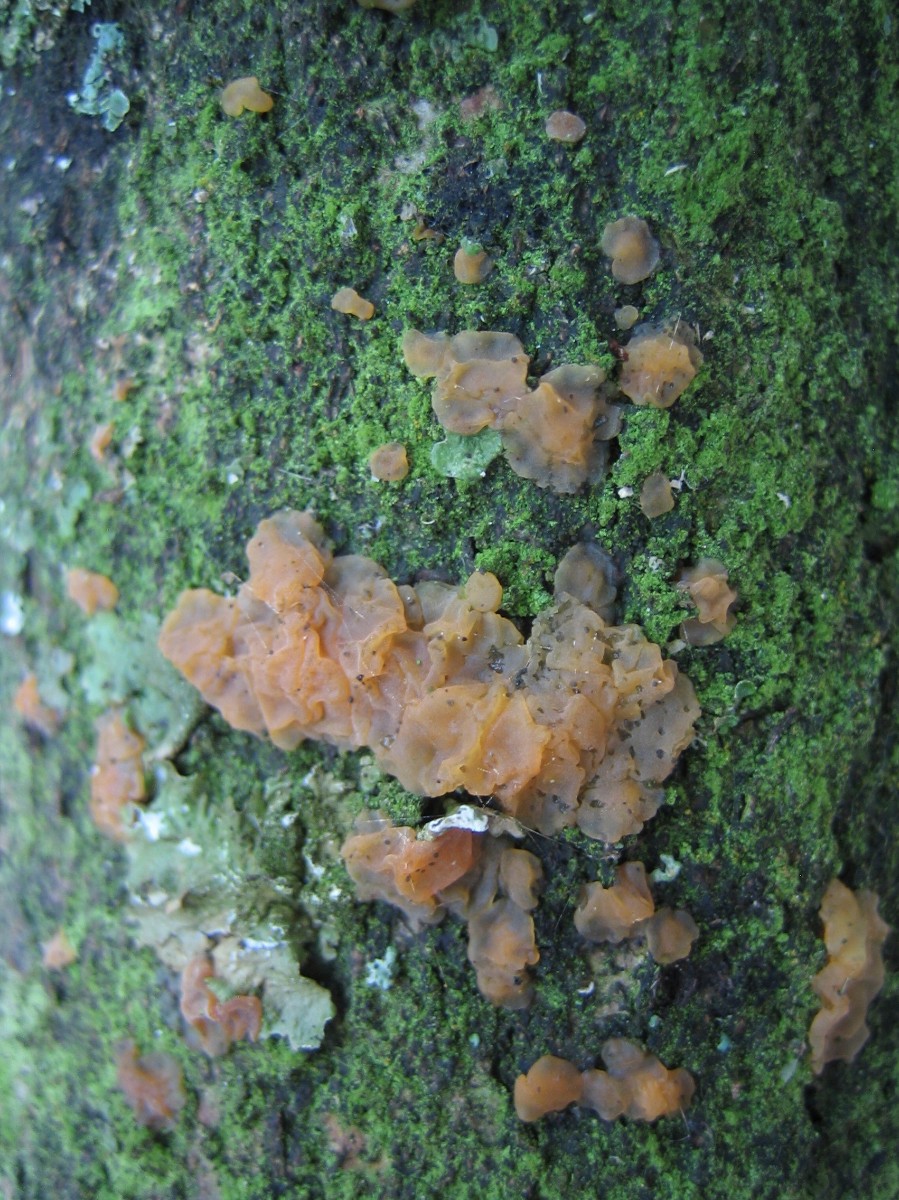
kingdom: Fungi
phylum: Basidiomycota
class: Dacrymycetes
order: Dacrymycetales
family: Dacrymycetaceae
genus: Dacrymyces
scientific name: Dacrymyces lacrymalis
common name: rynket tåresvamp
